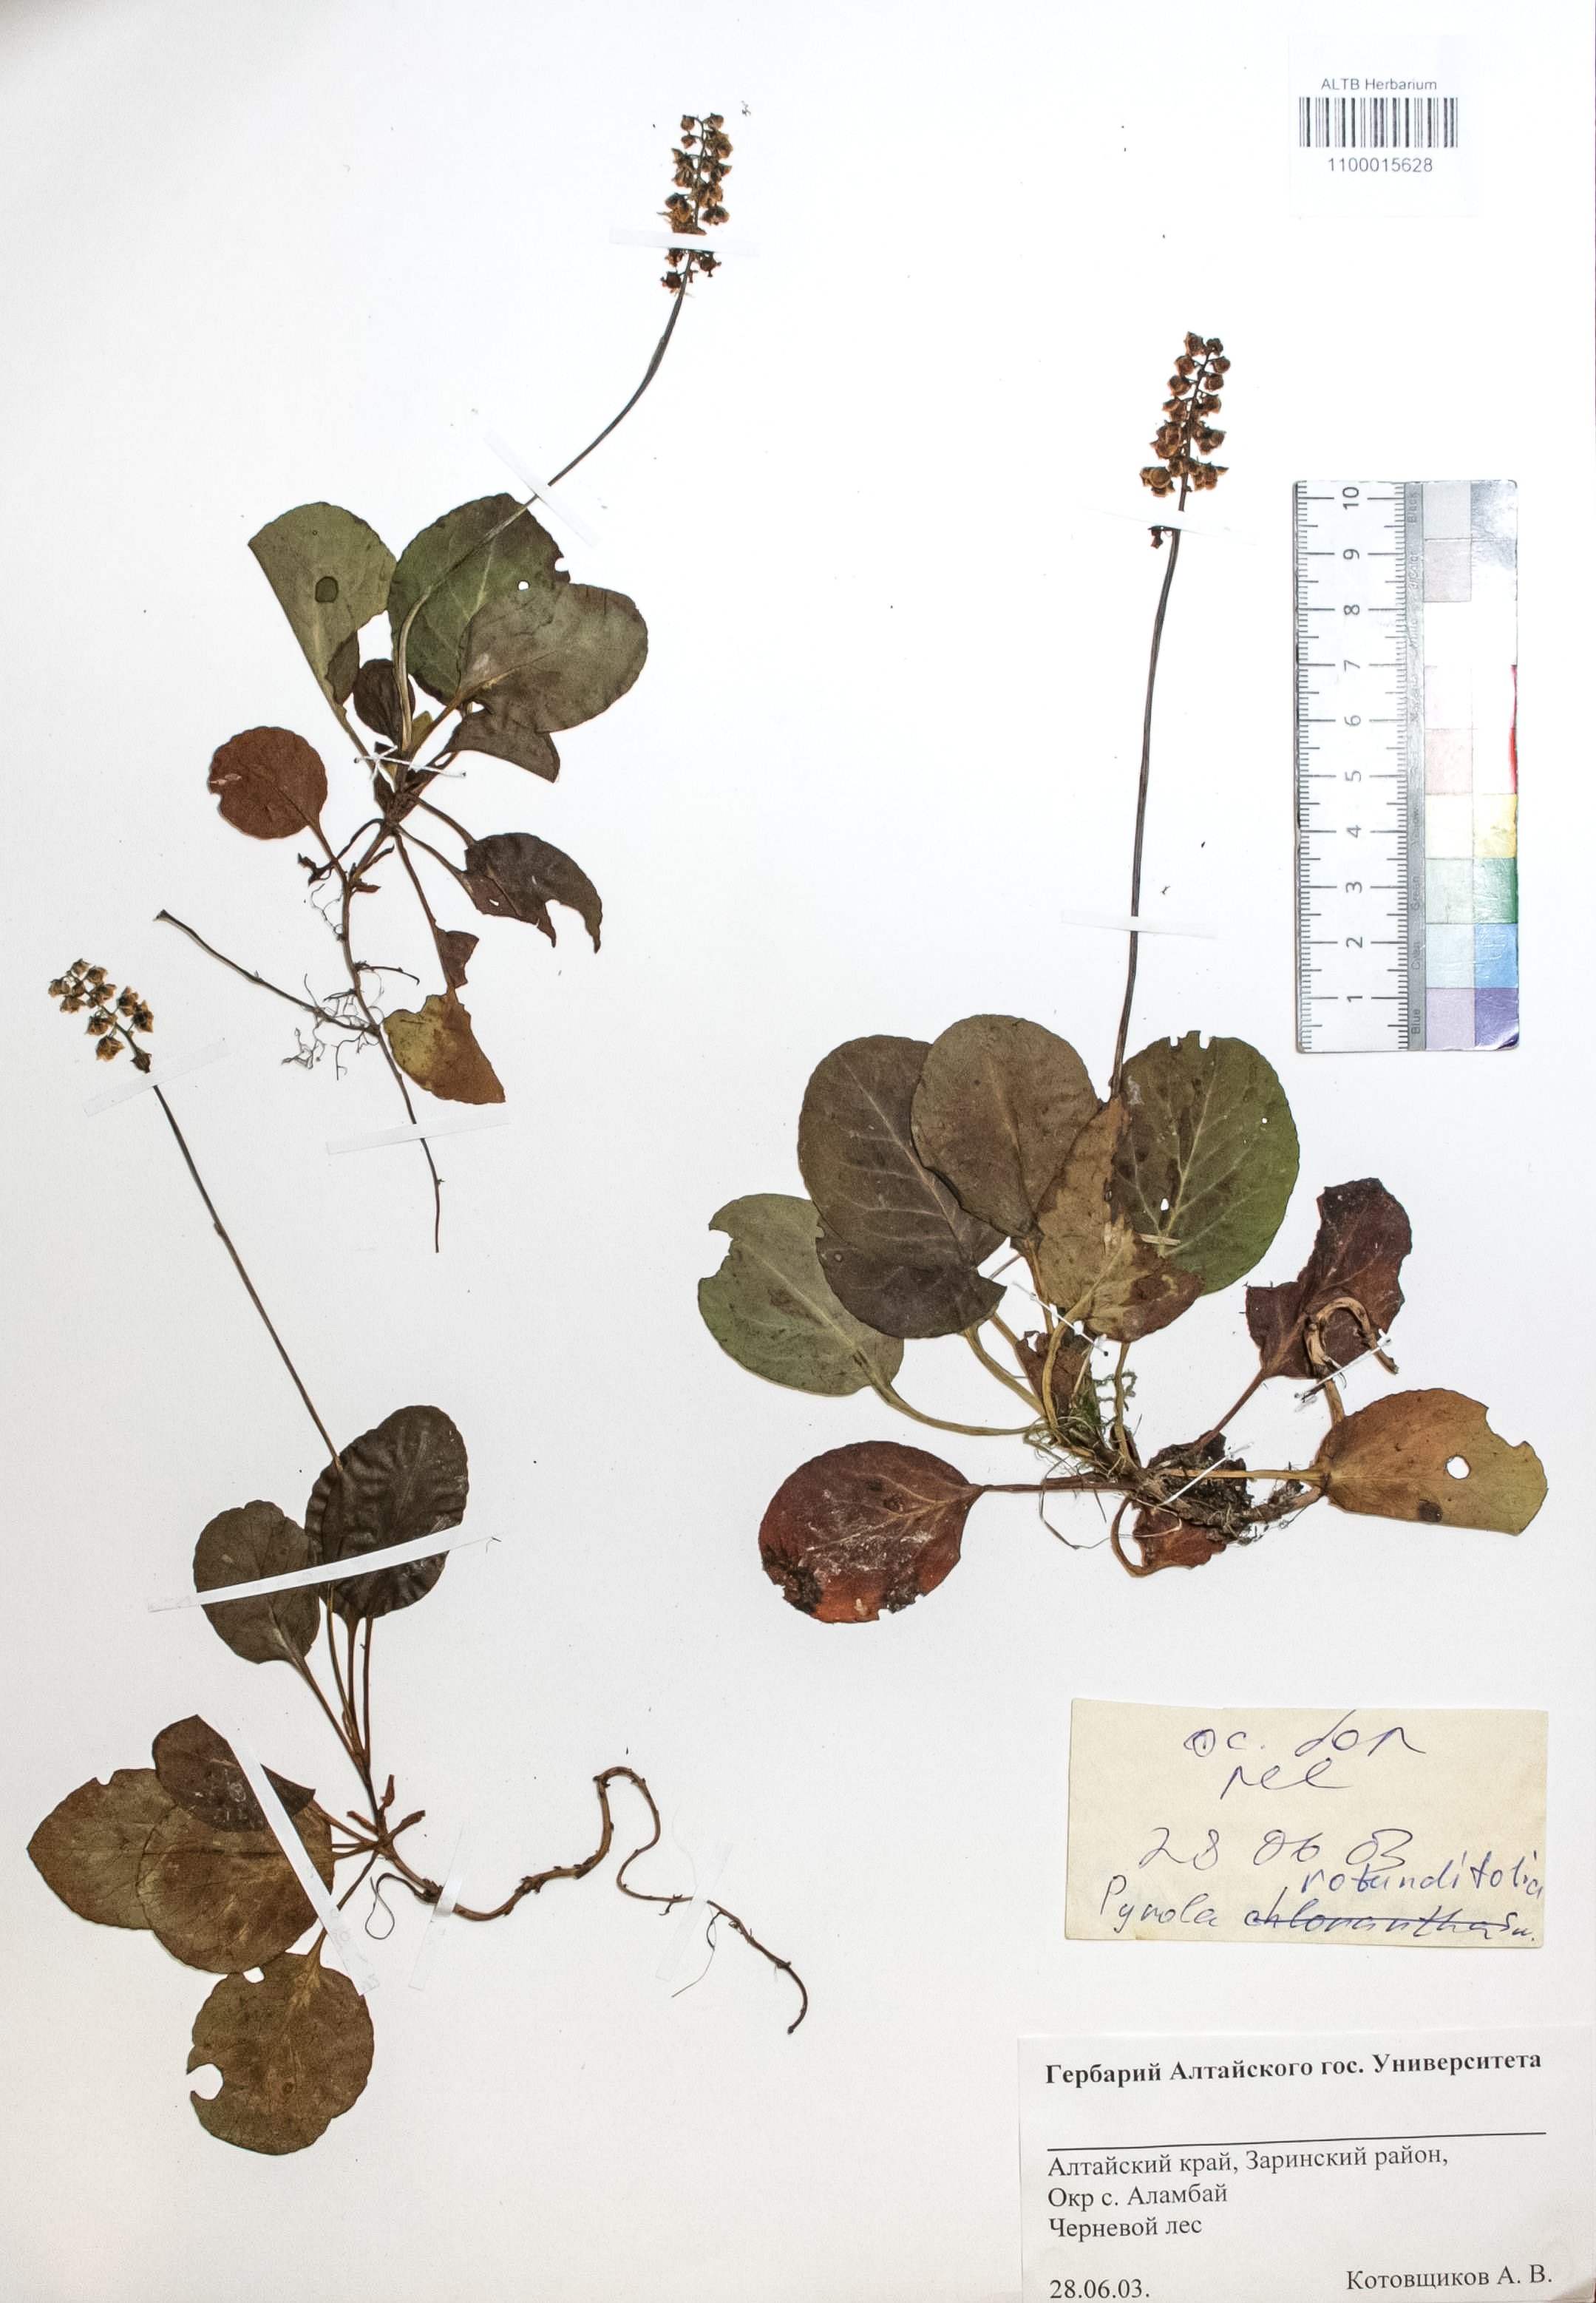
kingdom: Plantae
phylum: Tracheophyta
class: Magnoliopsida
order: Ericales
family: Ericaceae
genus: Pyrola
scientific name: Pyrola rotundifolia
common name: Round-leaved wintergreen
